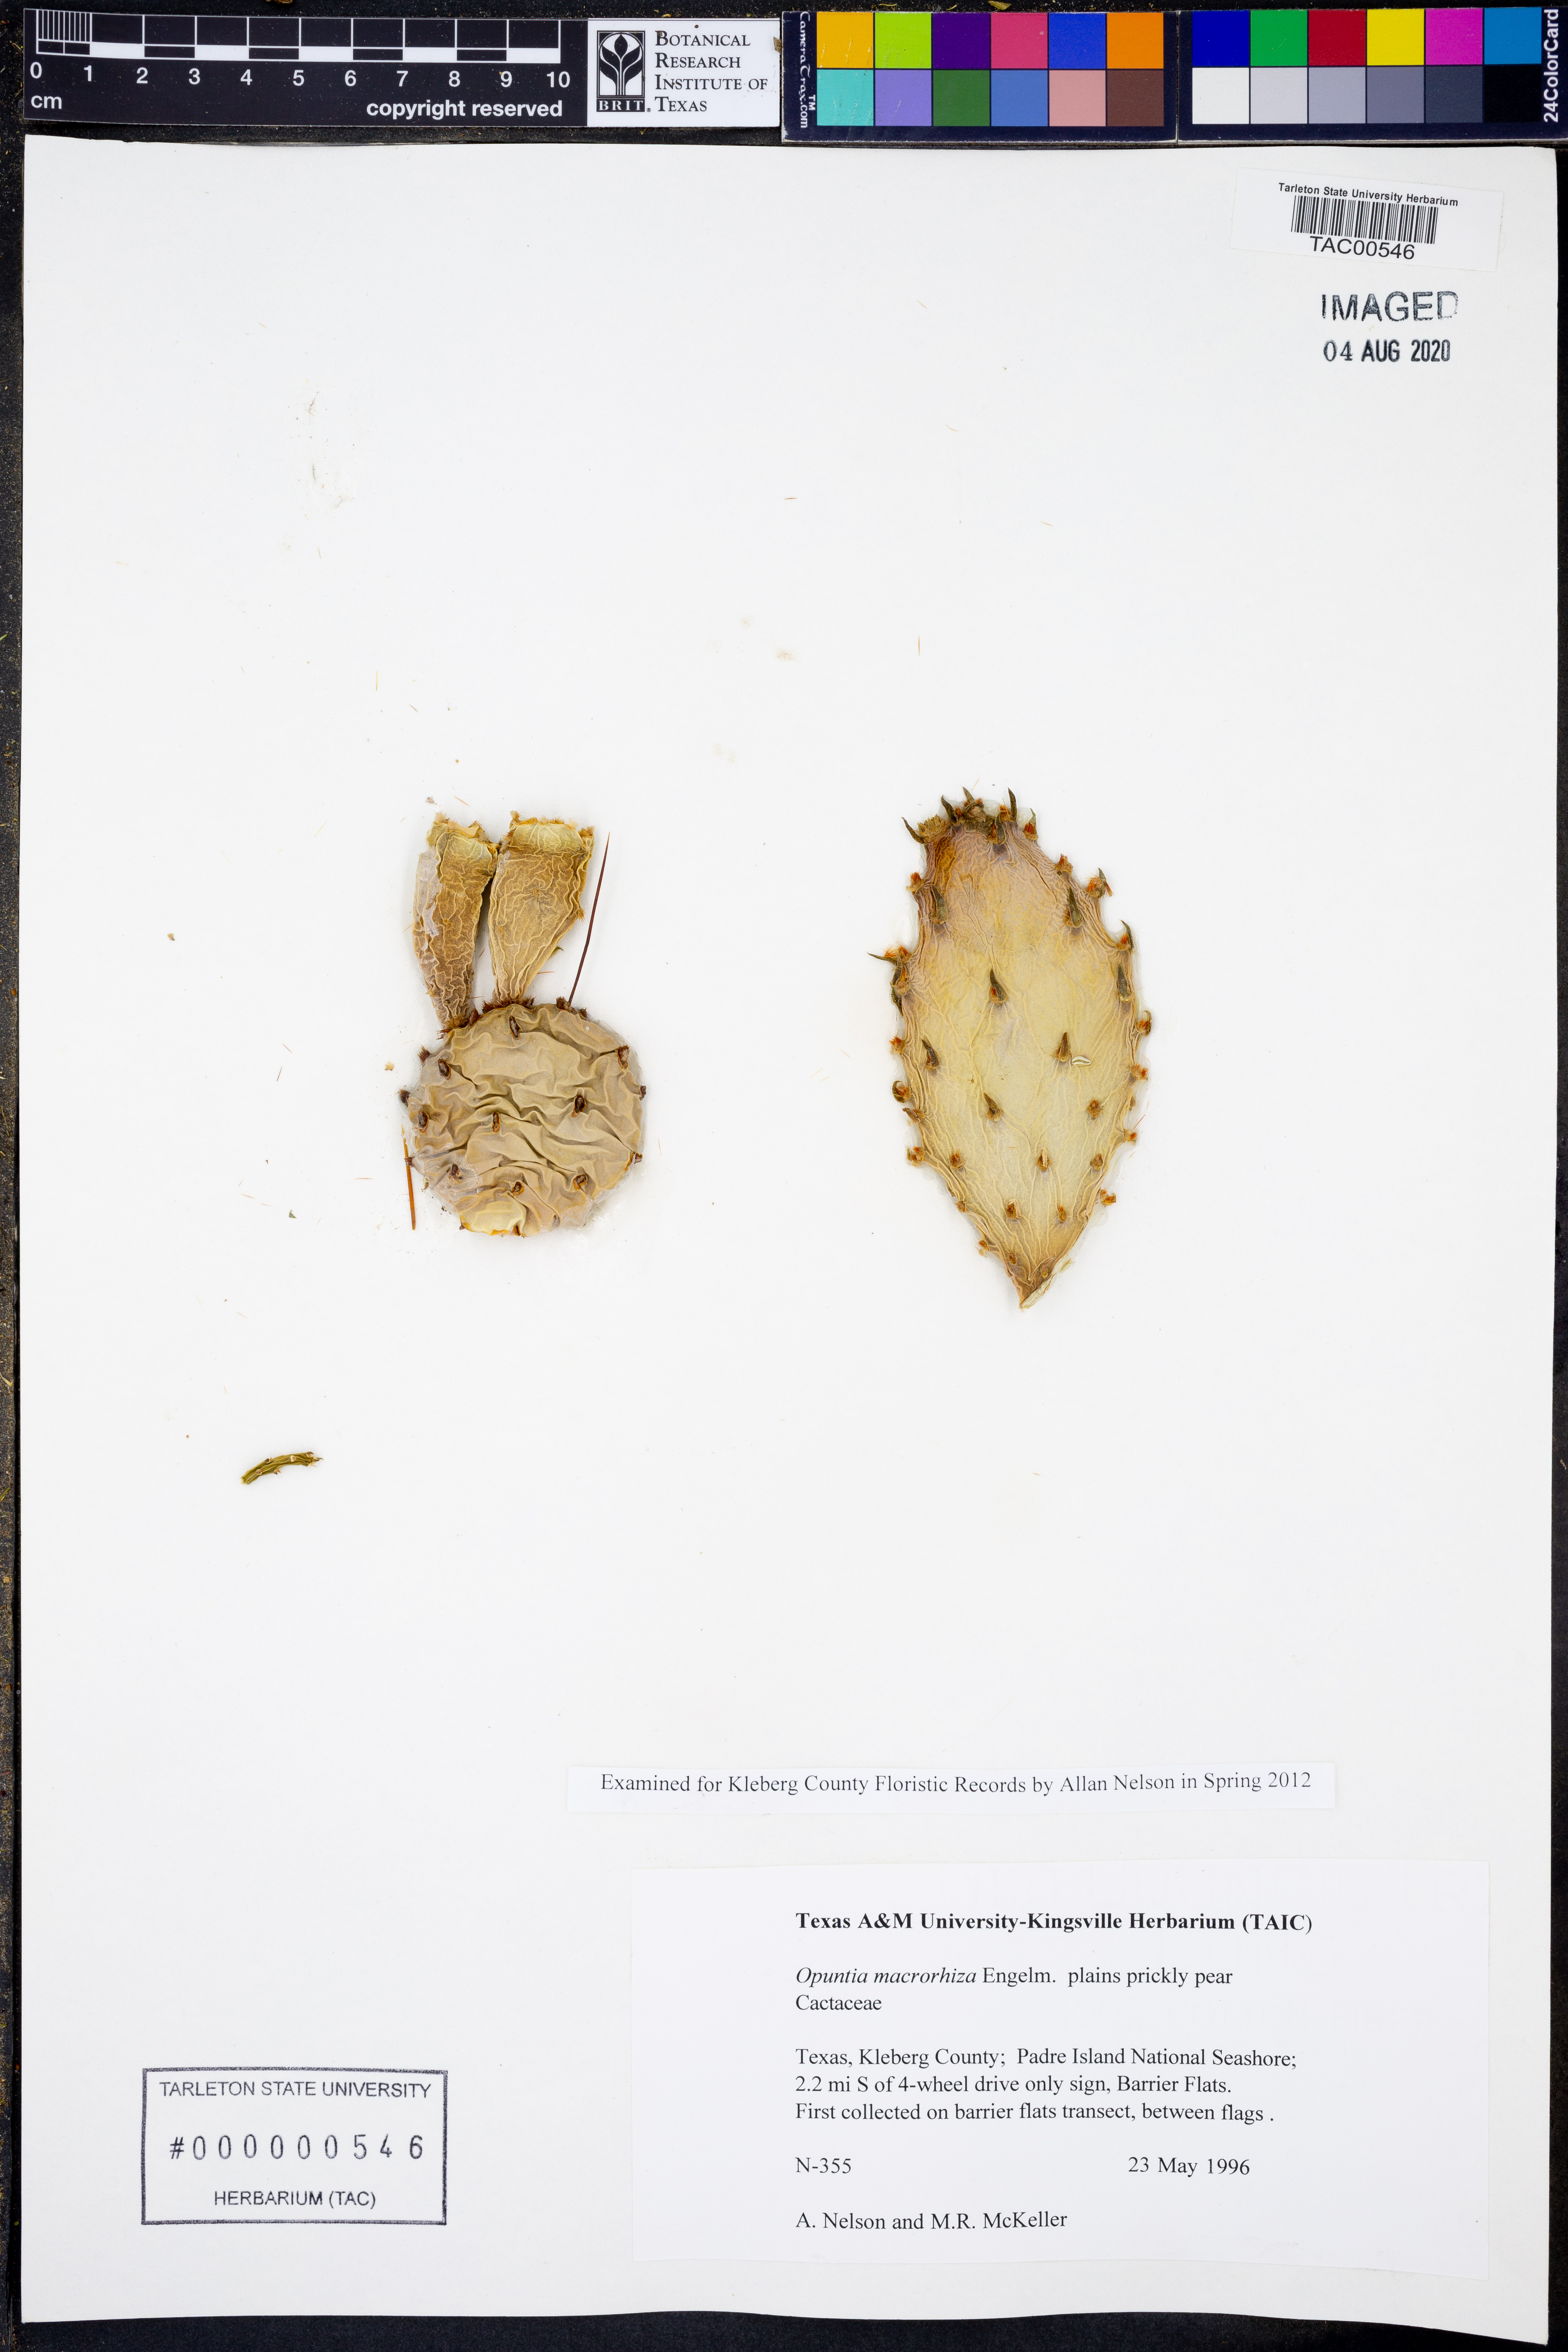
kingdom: Plantae
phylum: Tracheophyta
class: Magnoliopsida
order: Caryophyllales
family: Cactaceae
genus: Opuntia
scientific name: Opuntia macrorhiza
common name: Grassland pricklypear
